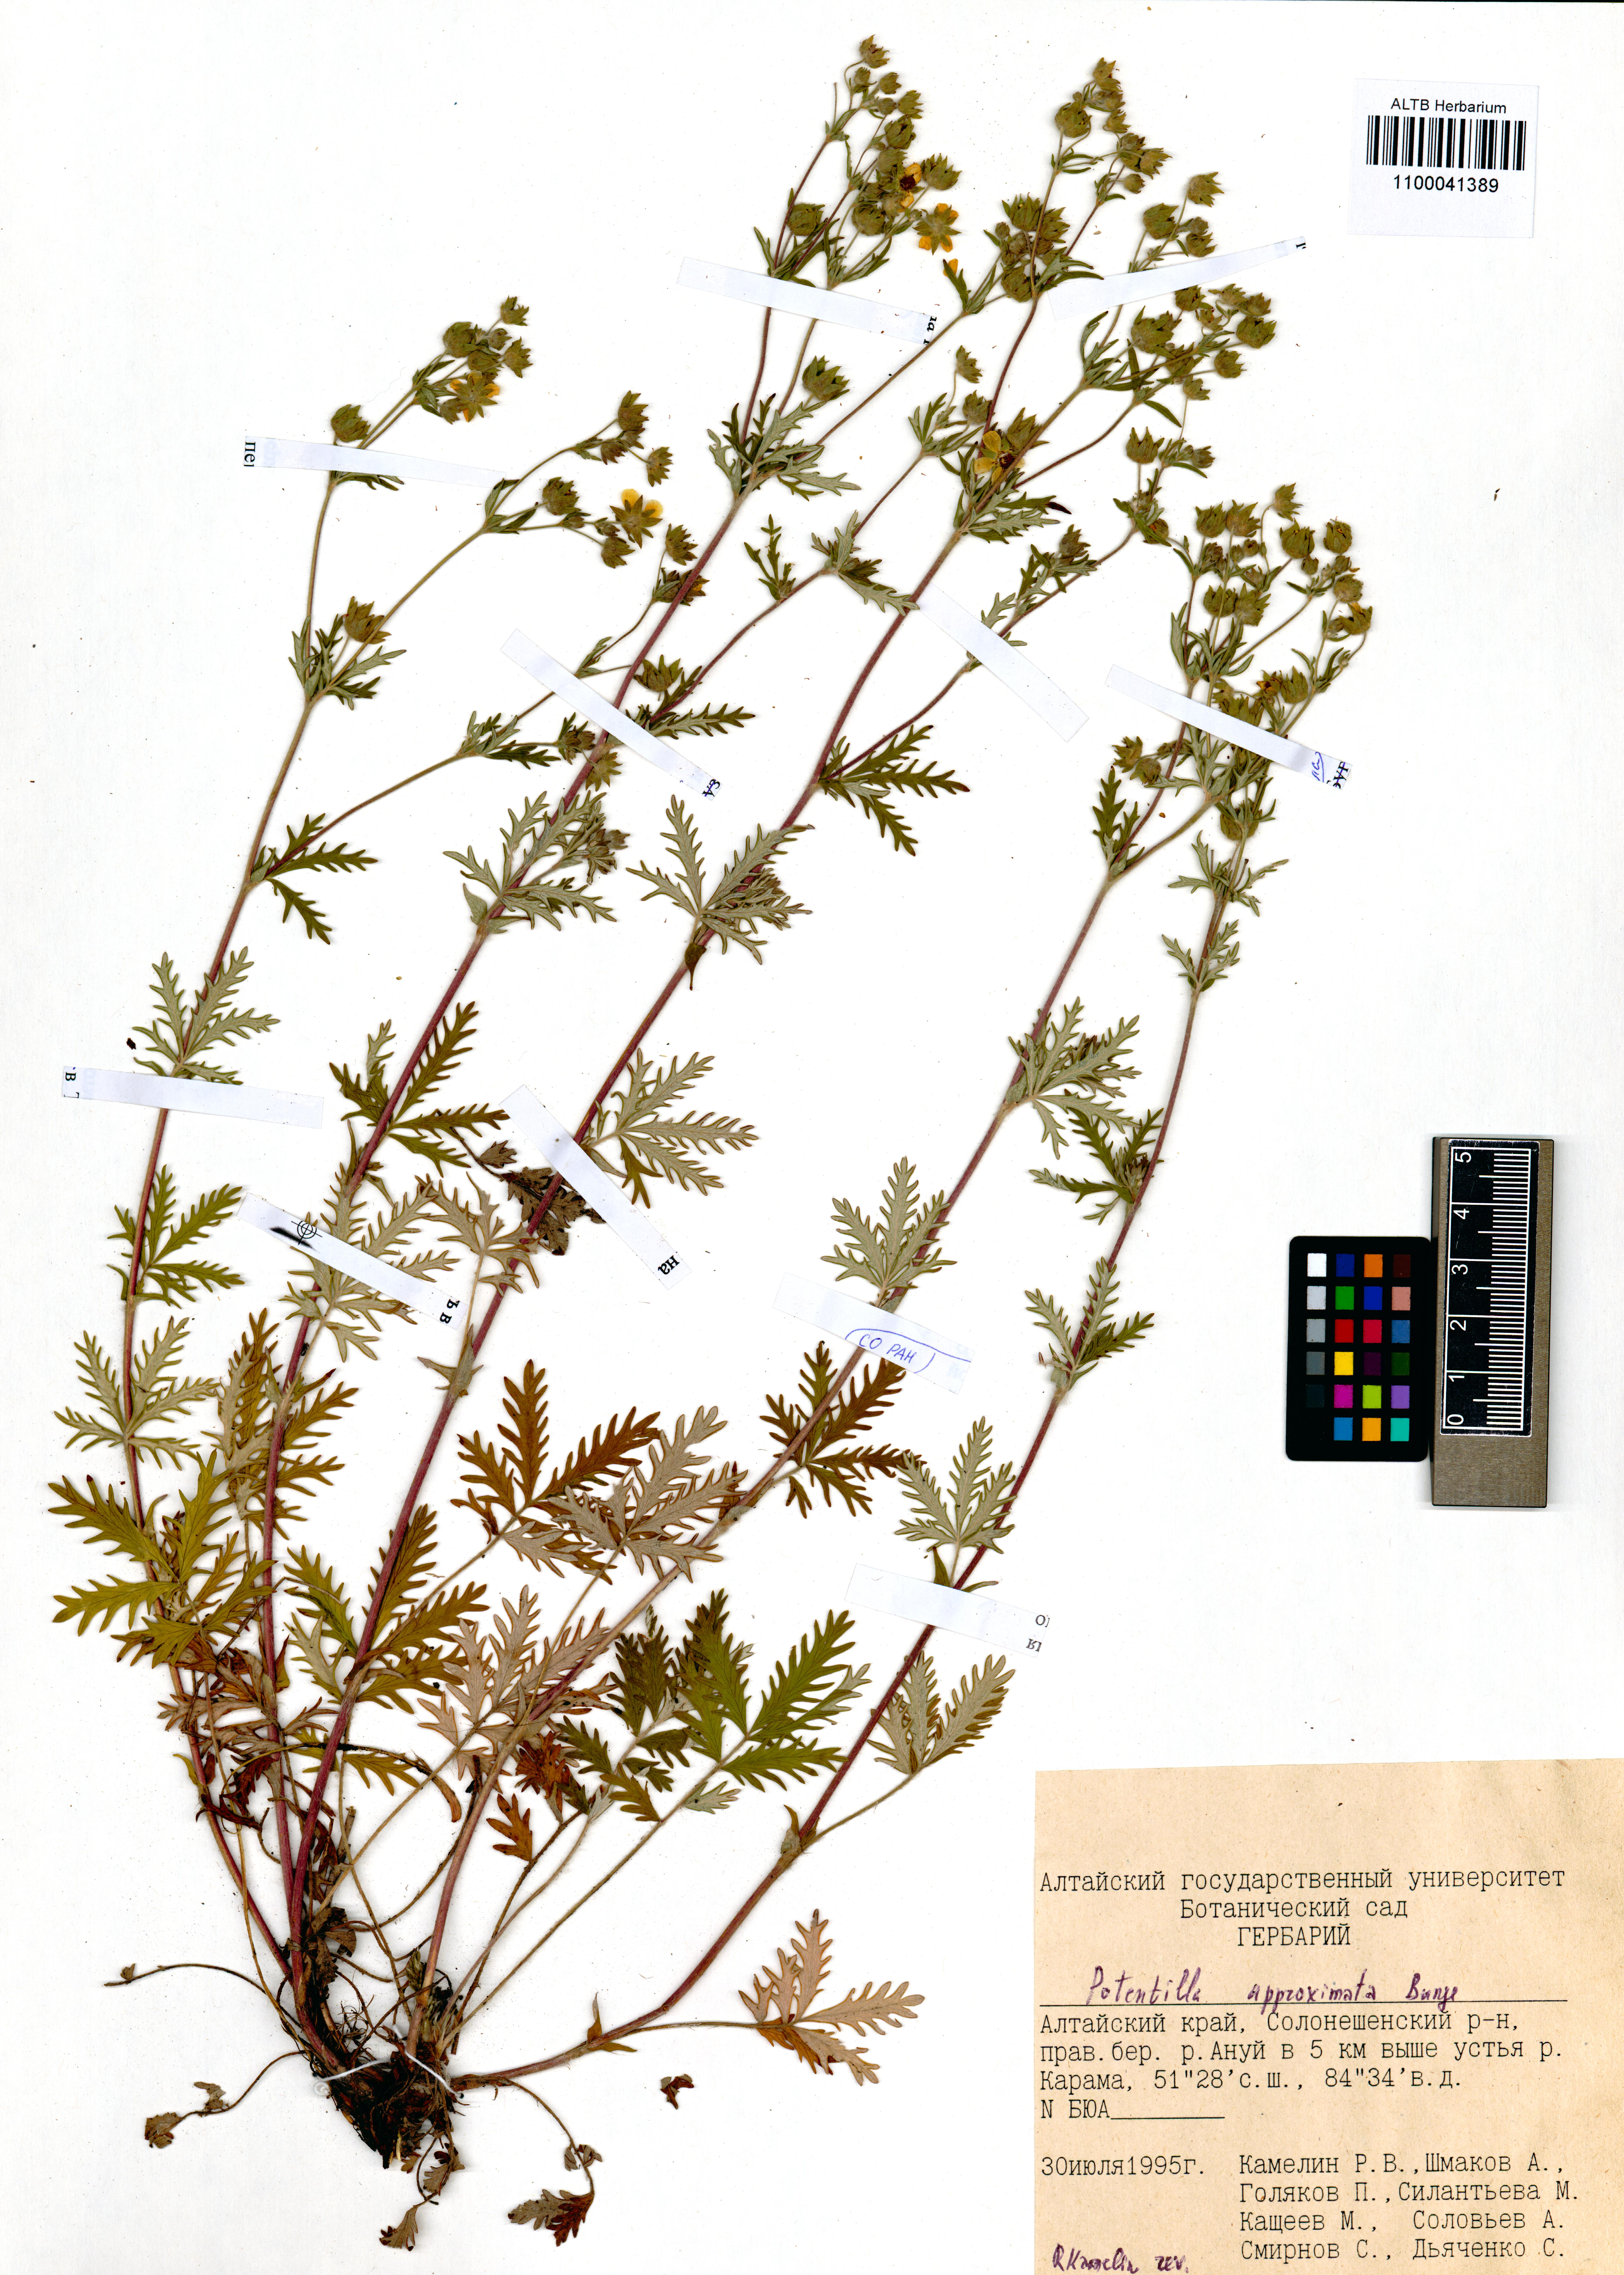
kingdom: Plantae
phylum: Tracheophyta
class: Magnoliopsida
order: Rosales
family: Rosaceae
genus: Potentilla
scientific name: Potentilla conferta
